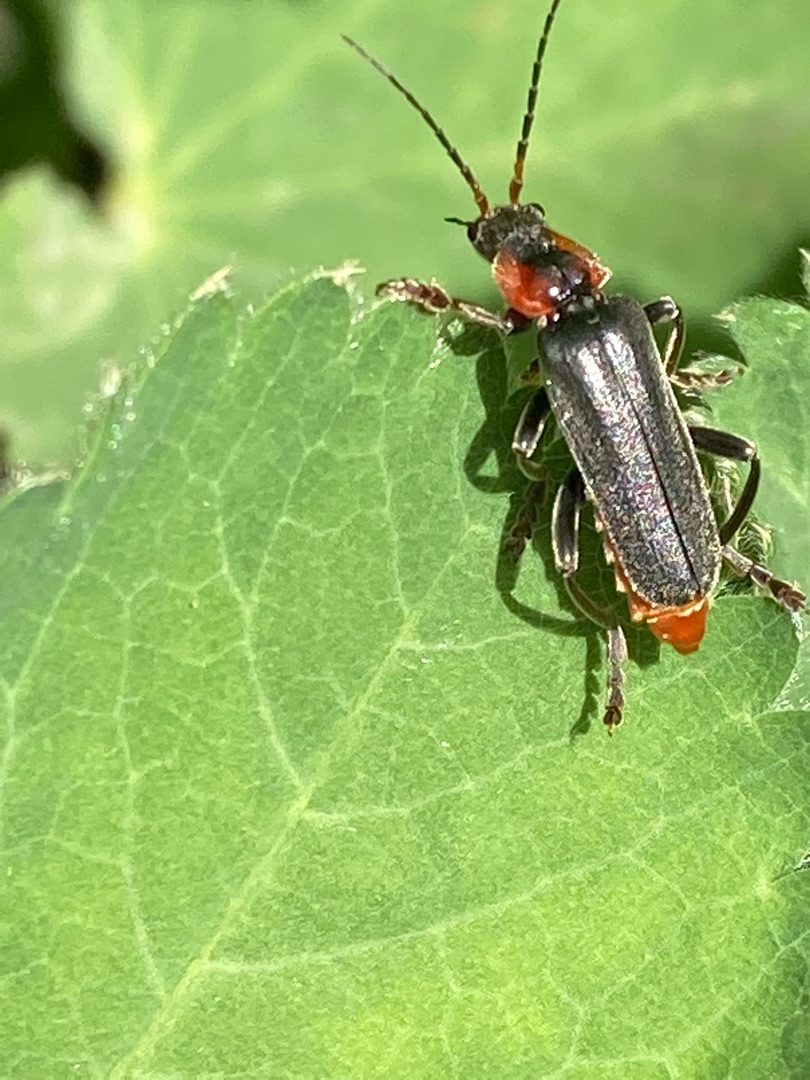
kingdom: Animalia
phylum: Arthropoda
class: Insecta
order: Coleoptera
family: Cantharidae
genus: Cantharis
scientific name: Cantharis fusca
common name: Stor blødvinge
